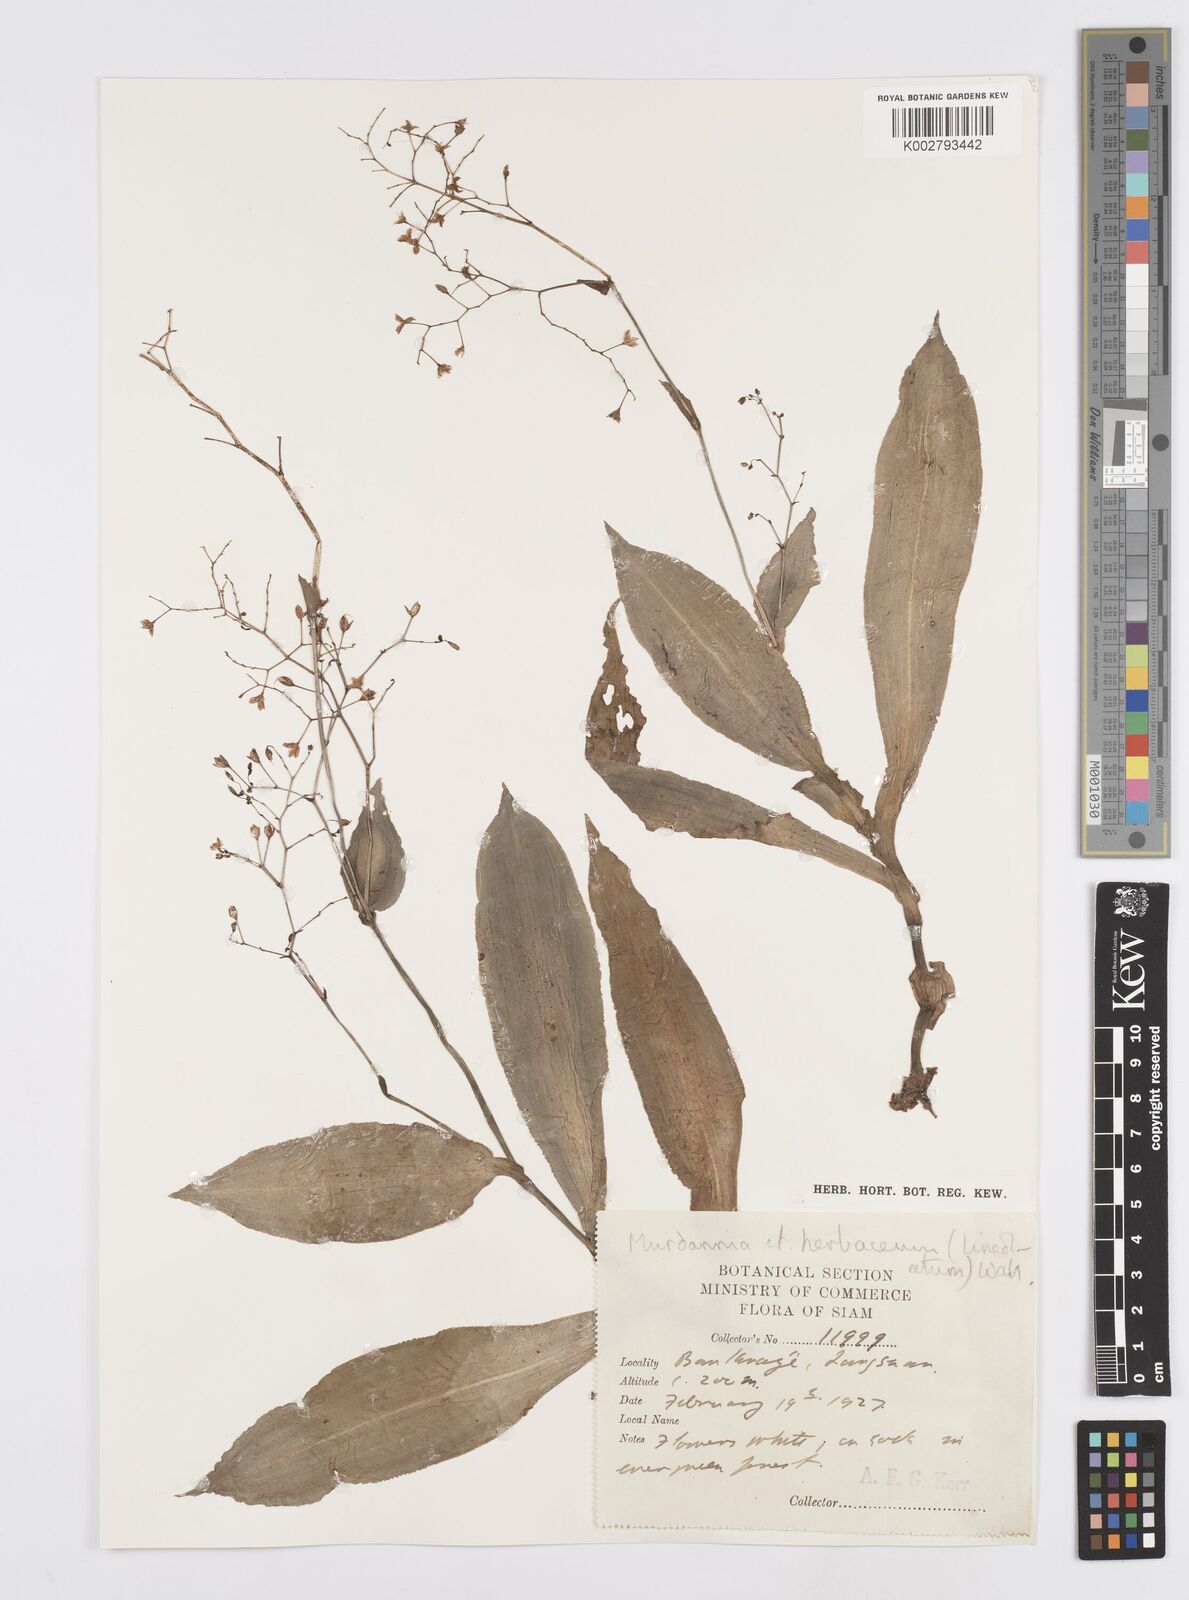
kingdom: Plantae
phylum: Tracheophyta
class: Liliopsida
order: Commelinales
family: Commelinaceae
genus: Murdannia
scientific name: Murdannia
